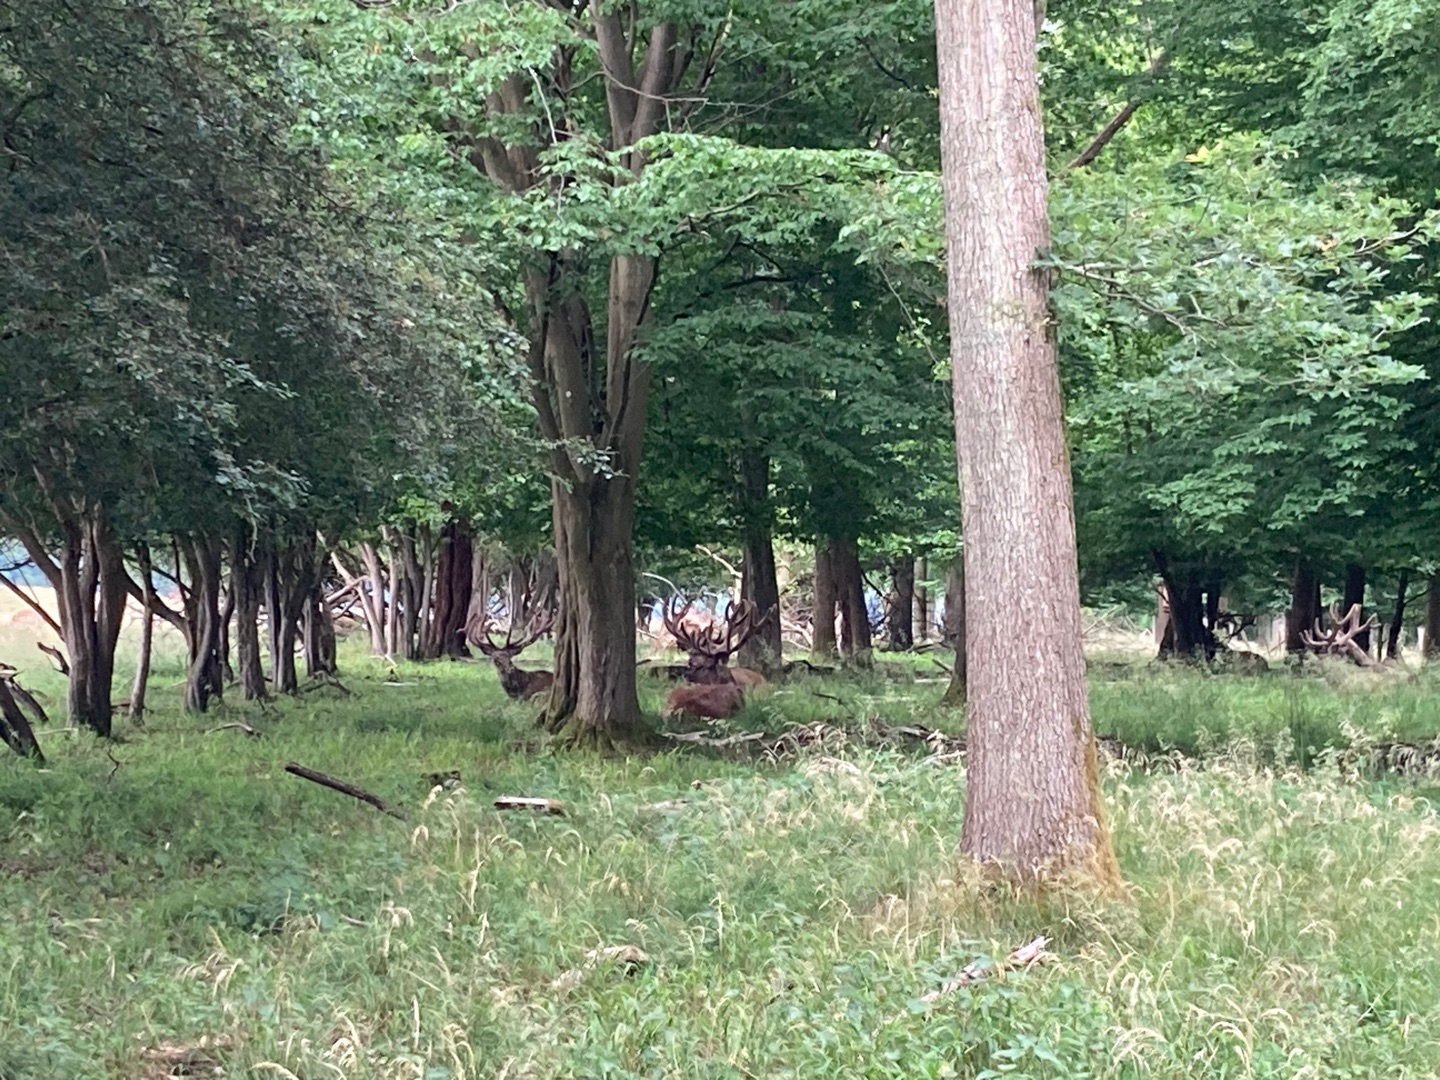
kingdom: Animalia
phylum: Chordata
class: Mammalia
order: Artiodactyla
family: Cervidae
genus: Cervus
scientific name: Cervus elaphus
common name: Krondyr
